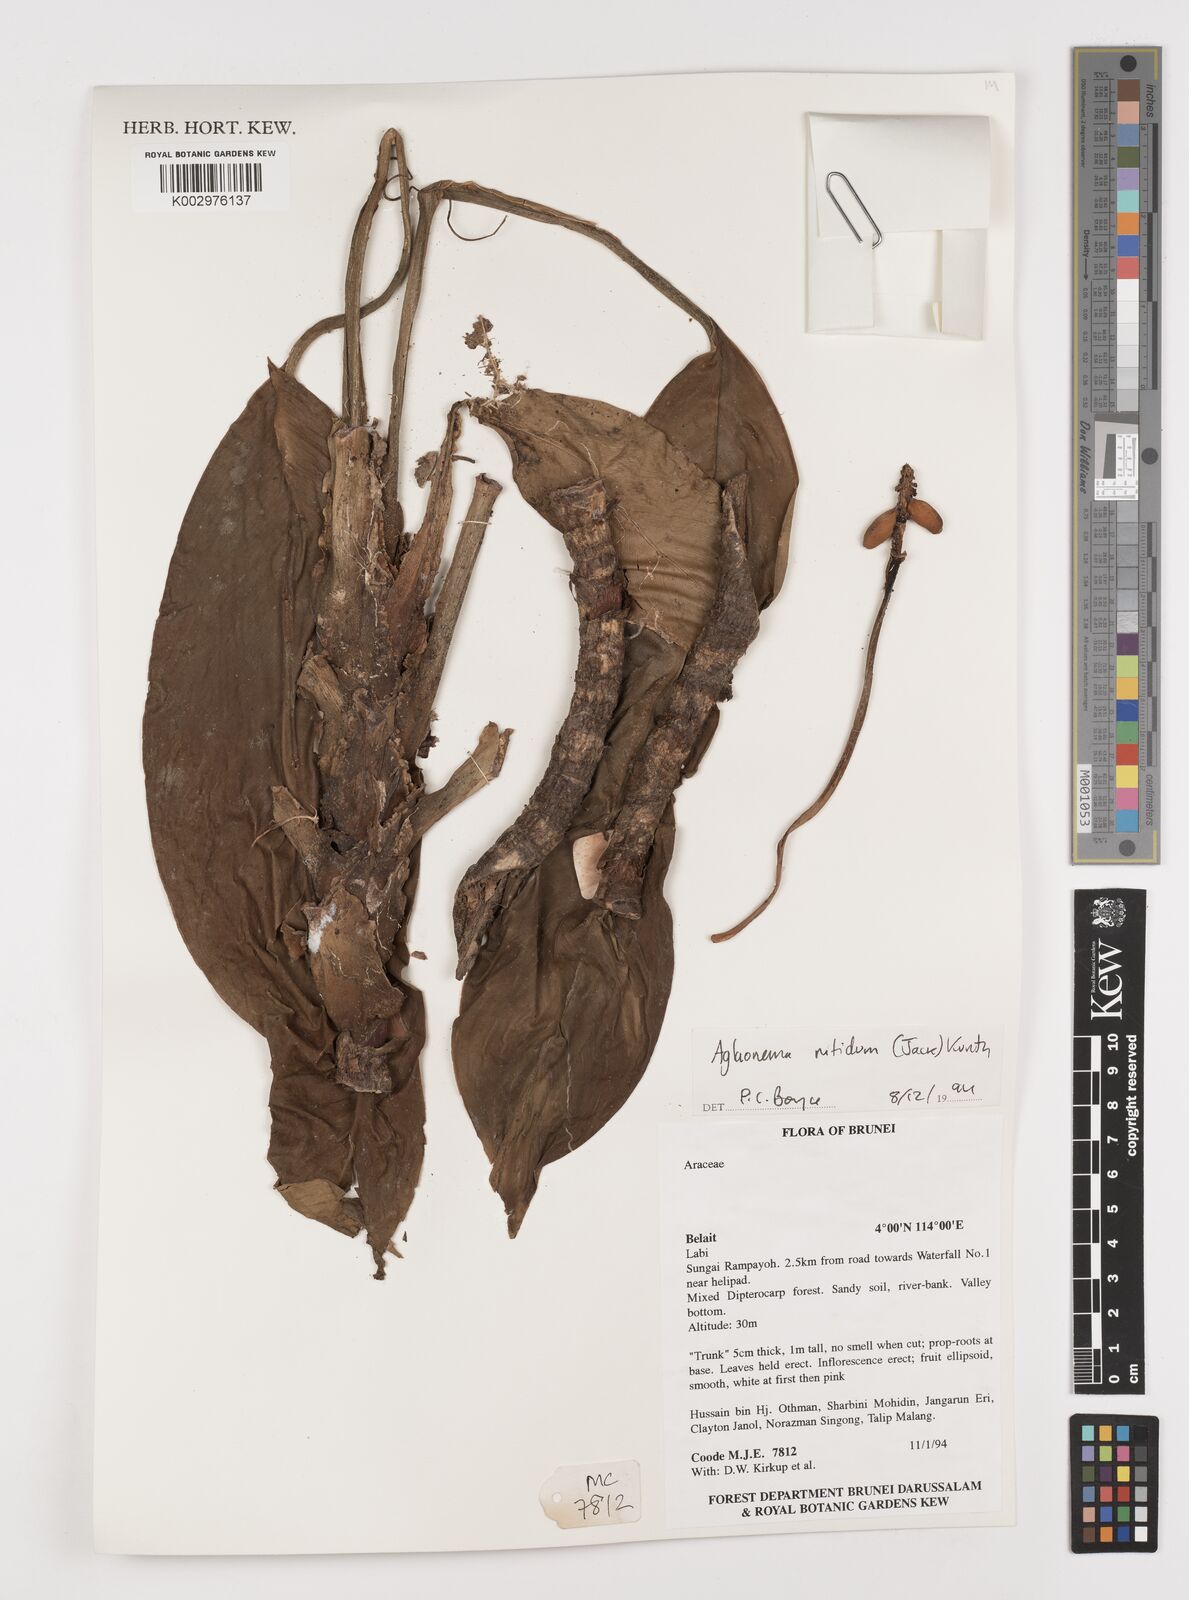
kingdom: Plantae
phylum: Tracheophyta
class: Liliopsida
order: Alismatales
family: Araceae
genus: Aglaonema
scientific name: Aglaonema nitidum
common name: Aglaonema aroid
